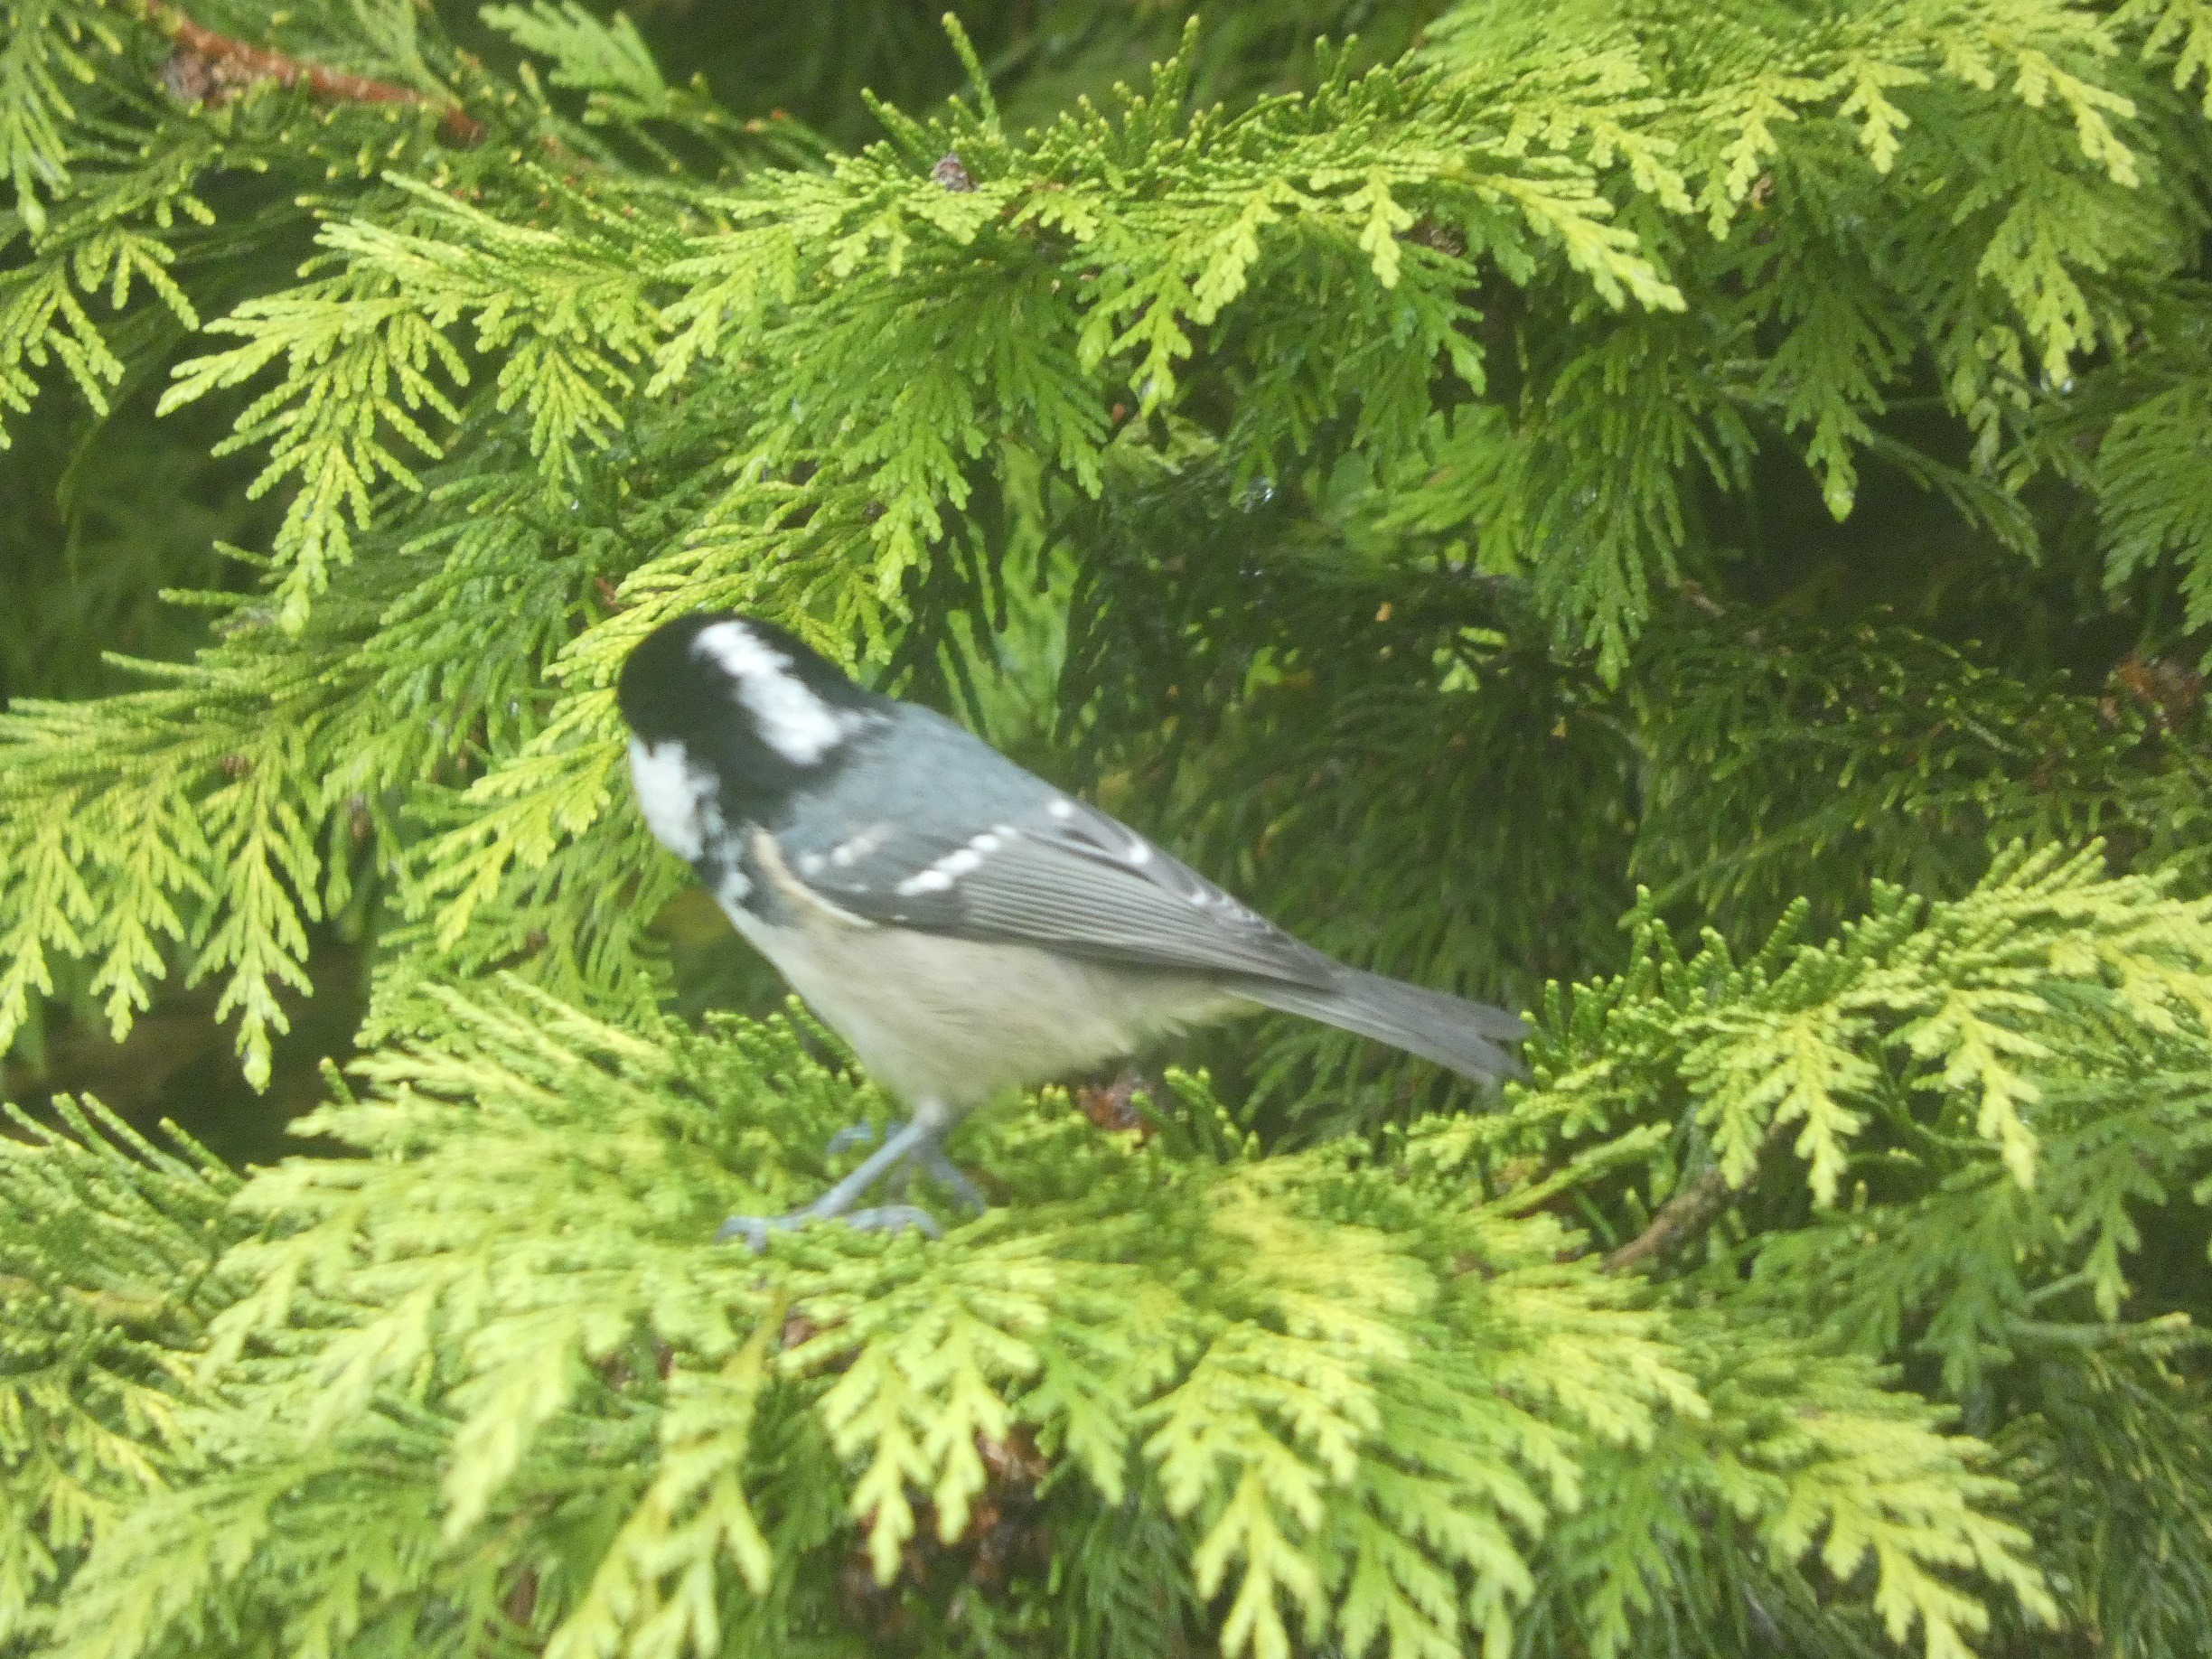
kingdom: Animalia
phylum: Chordata
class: Aves
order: Passeriformes
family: Paridae
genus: Periparus
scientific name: Periparus ater
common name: Sortmejse
